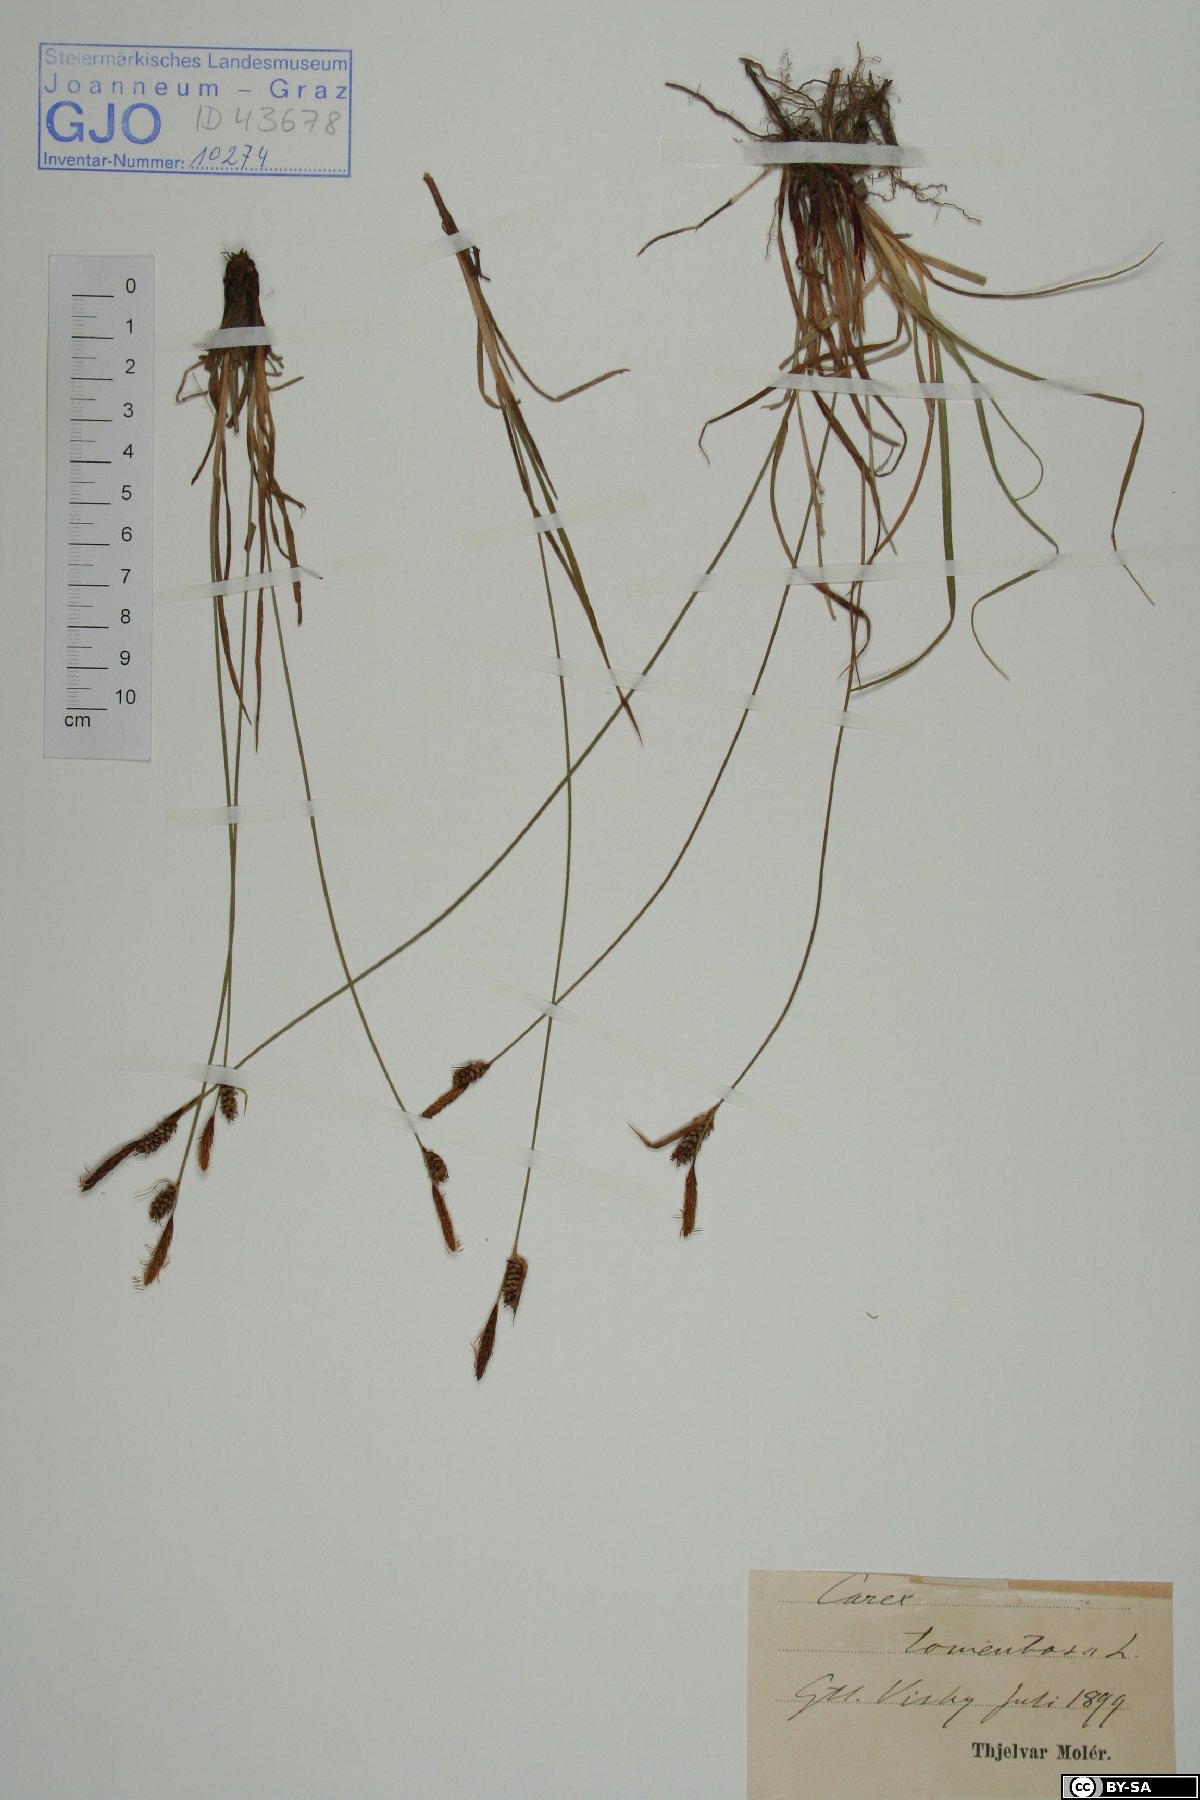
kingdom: Plantae
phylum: Tracheophyta
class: Liliopsida
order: Poales
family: Cyperaceae
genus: Carex
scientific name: Carex tomentosa
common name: Downy-fruited sedge
